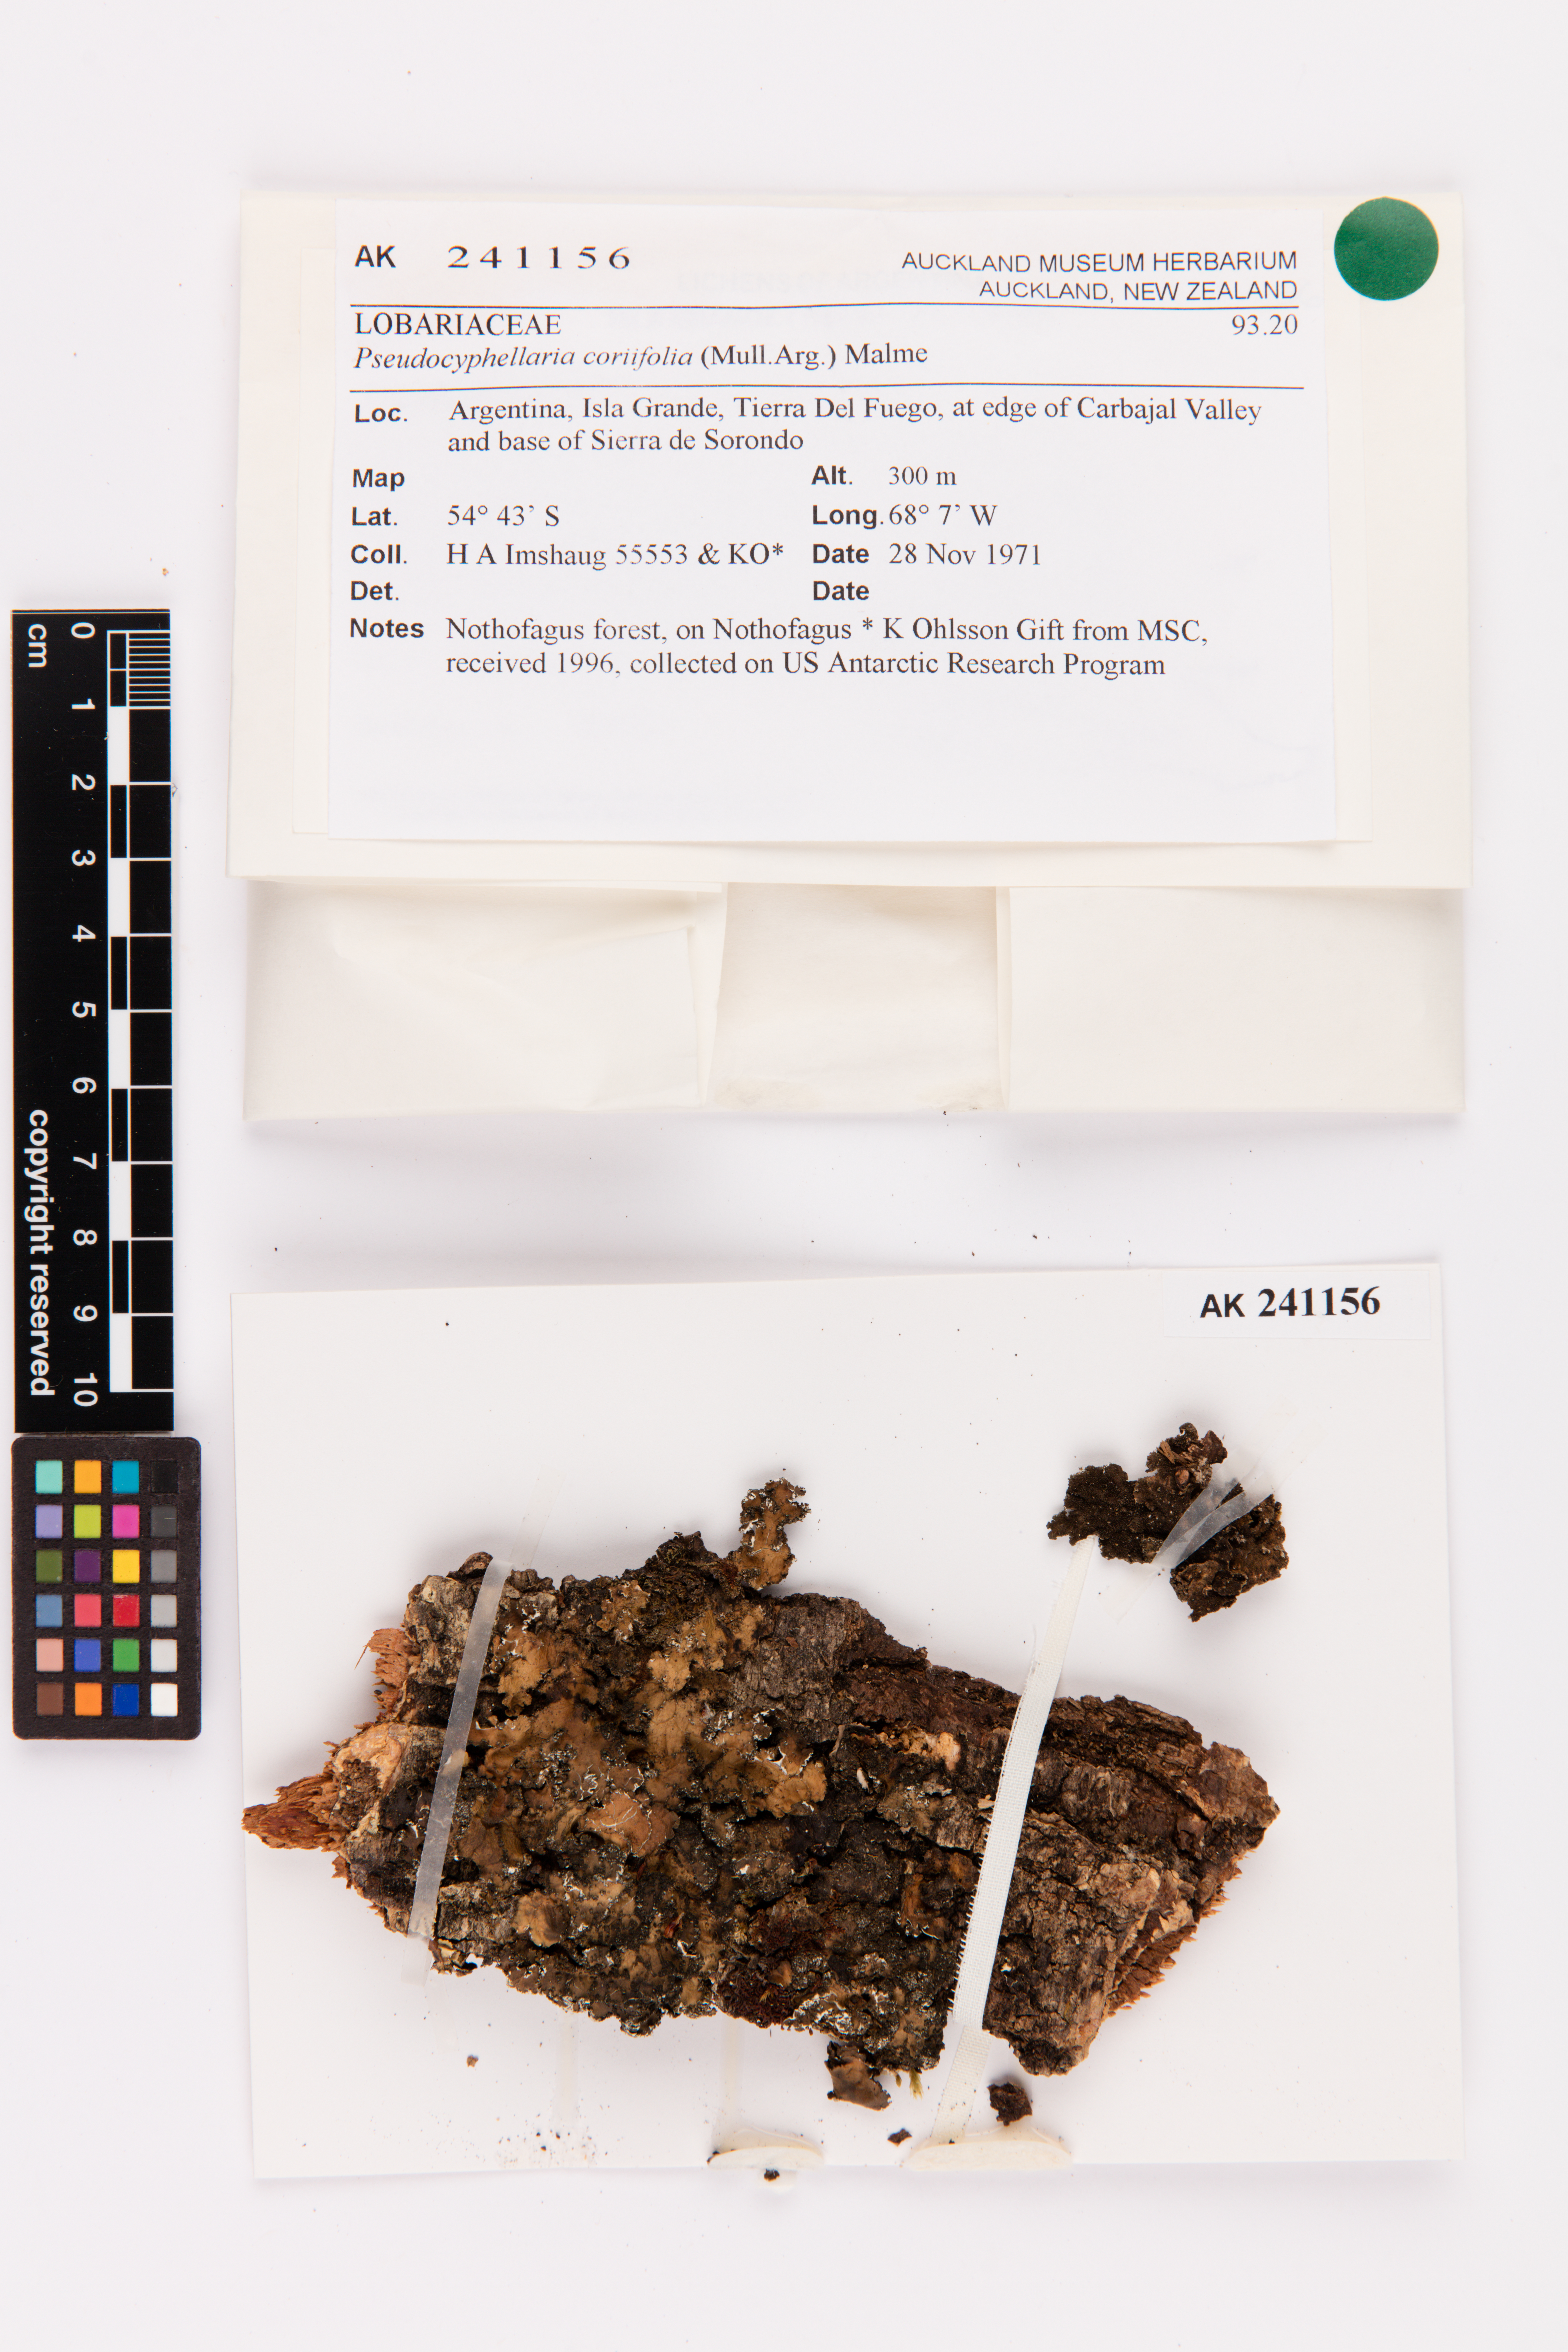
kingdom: Fungi
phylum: Ascomycota
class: Lecanoromycetes
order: Peltigerales
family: Lobariaceae
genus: Pseudocyphellaria
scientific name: Pseudocyphellaria coriifolia
